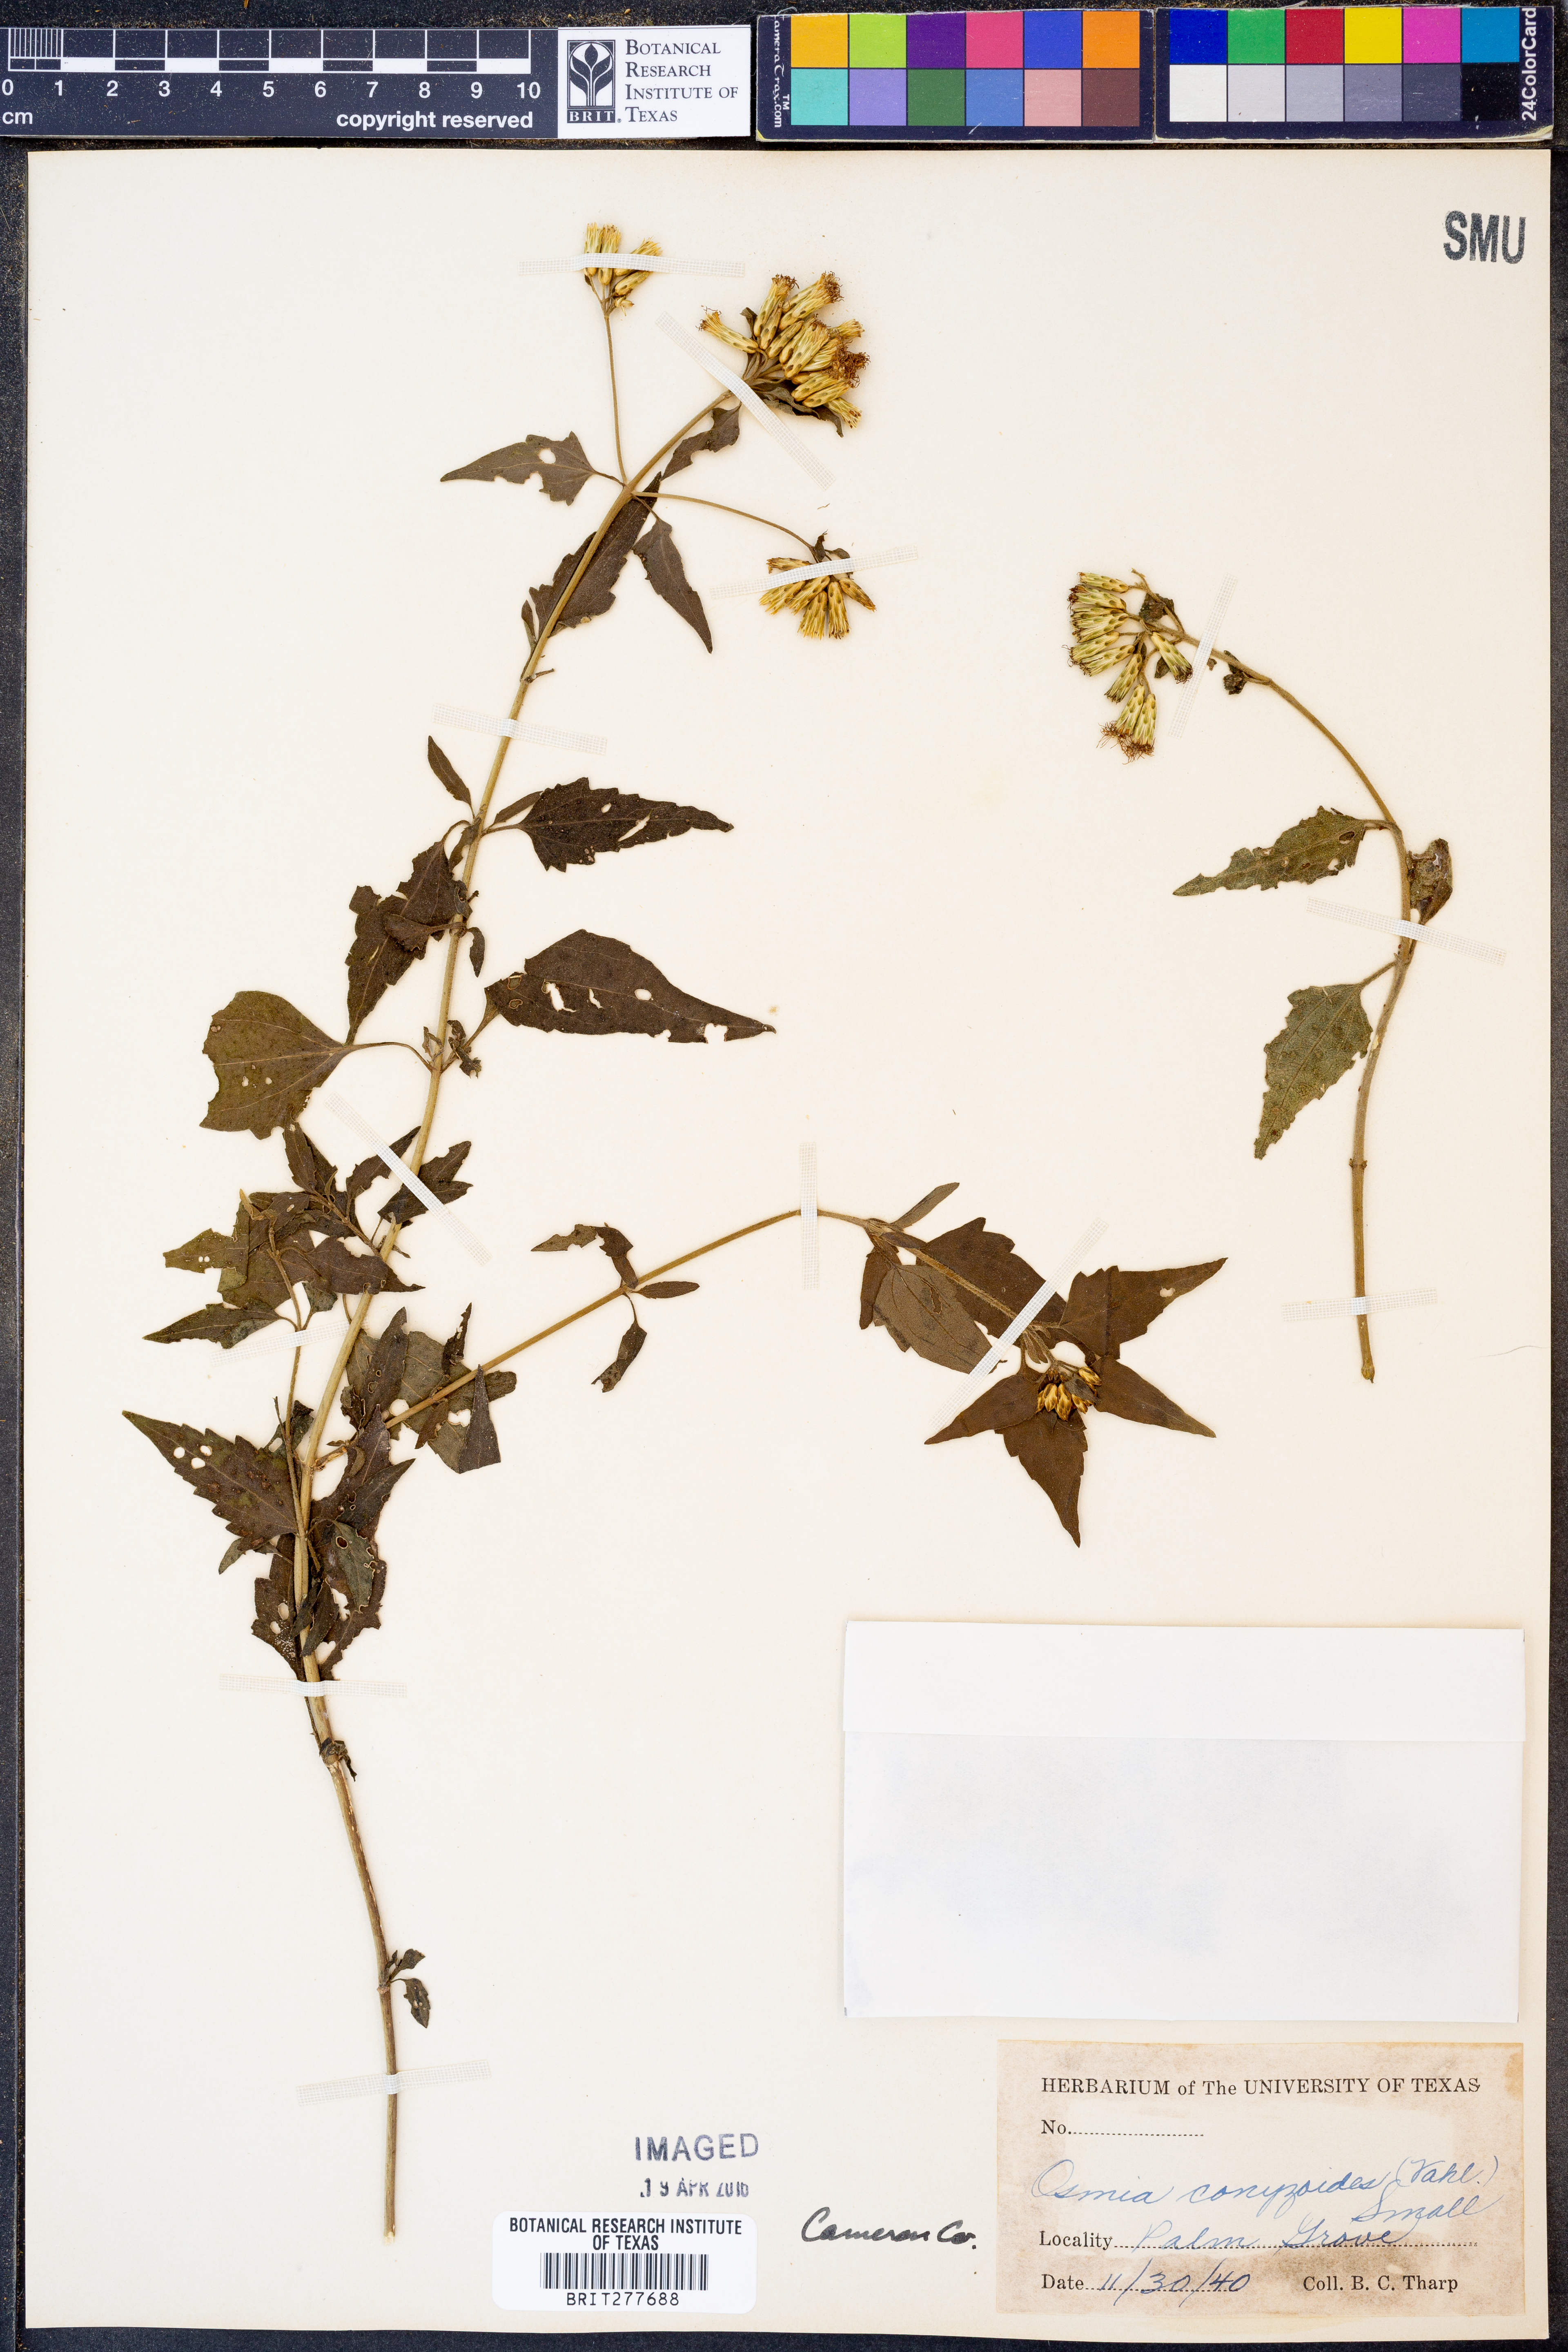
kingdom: Plantae
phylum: Tracheophyta
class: Magnoliopsida
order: Asterales
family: Asteraceae
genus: Lepidaploa
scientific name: Lepidaploa arborescens
